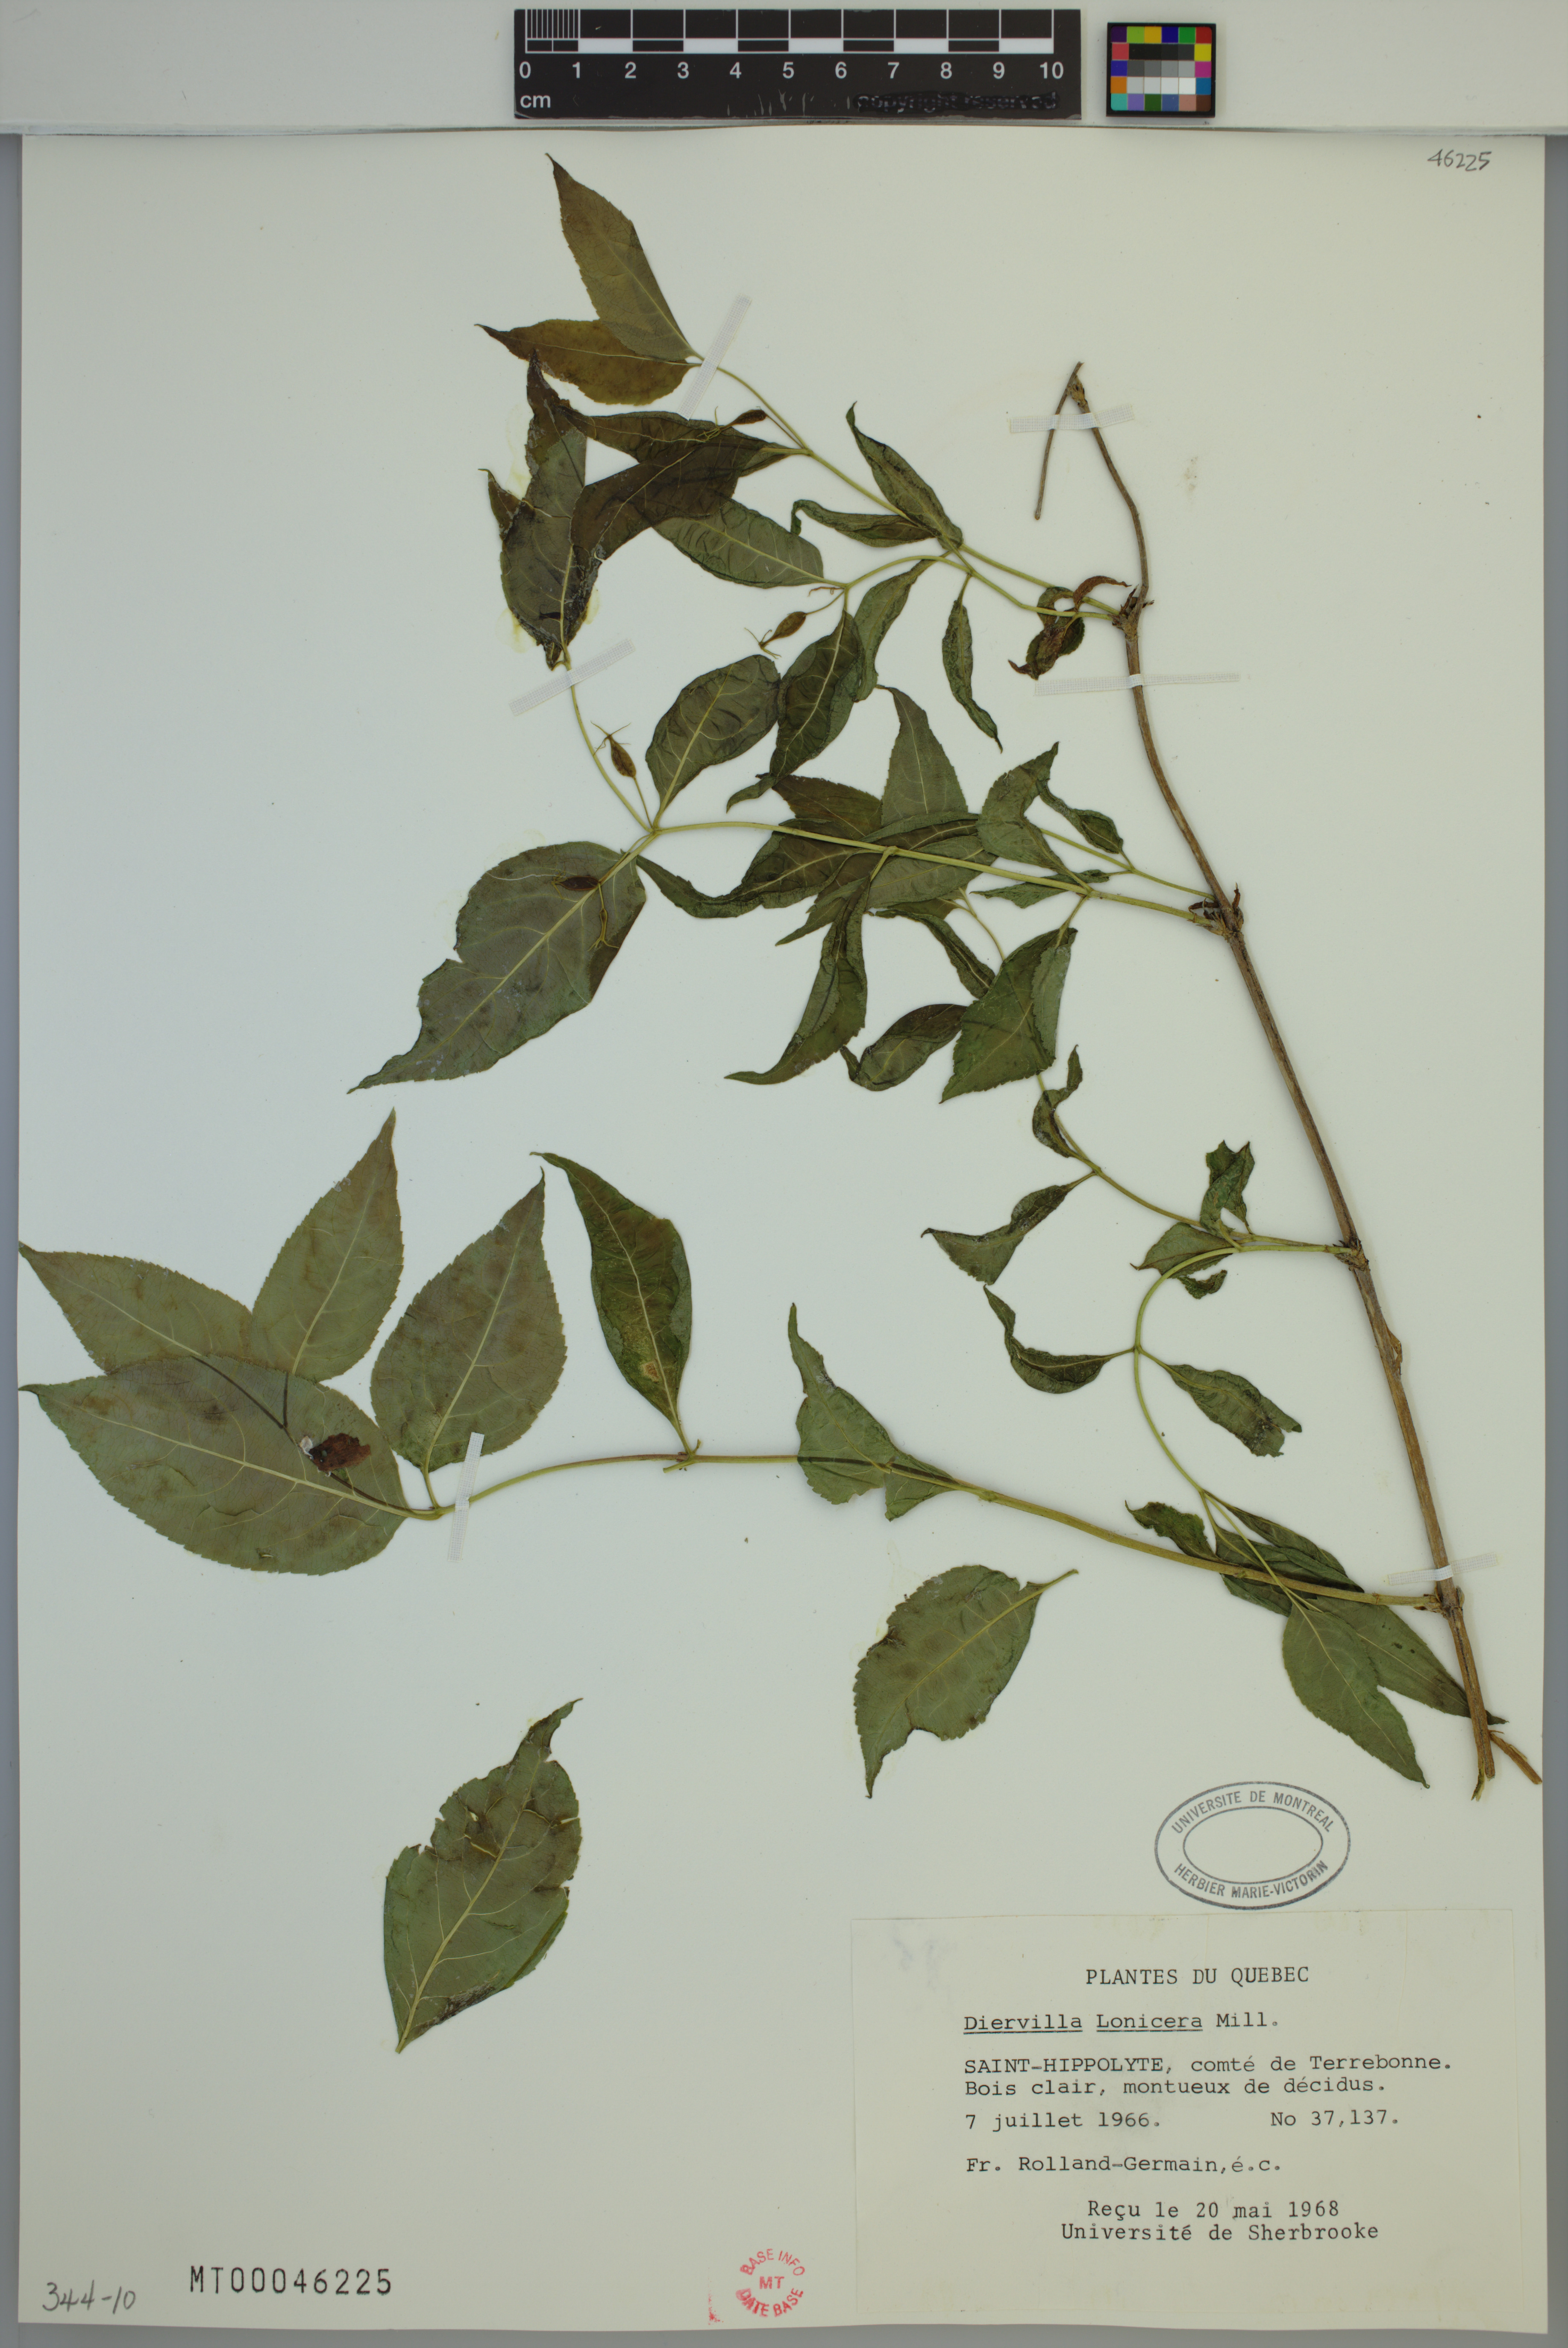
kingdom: Plantae
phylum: Tracheophyta
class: Magnoliopsida
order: Dipsacales
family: Caprifoliaceae
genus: Diervilla
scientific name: Diervilla lonicera
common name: Bush-honeysuckle
